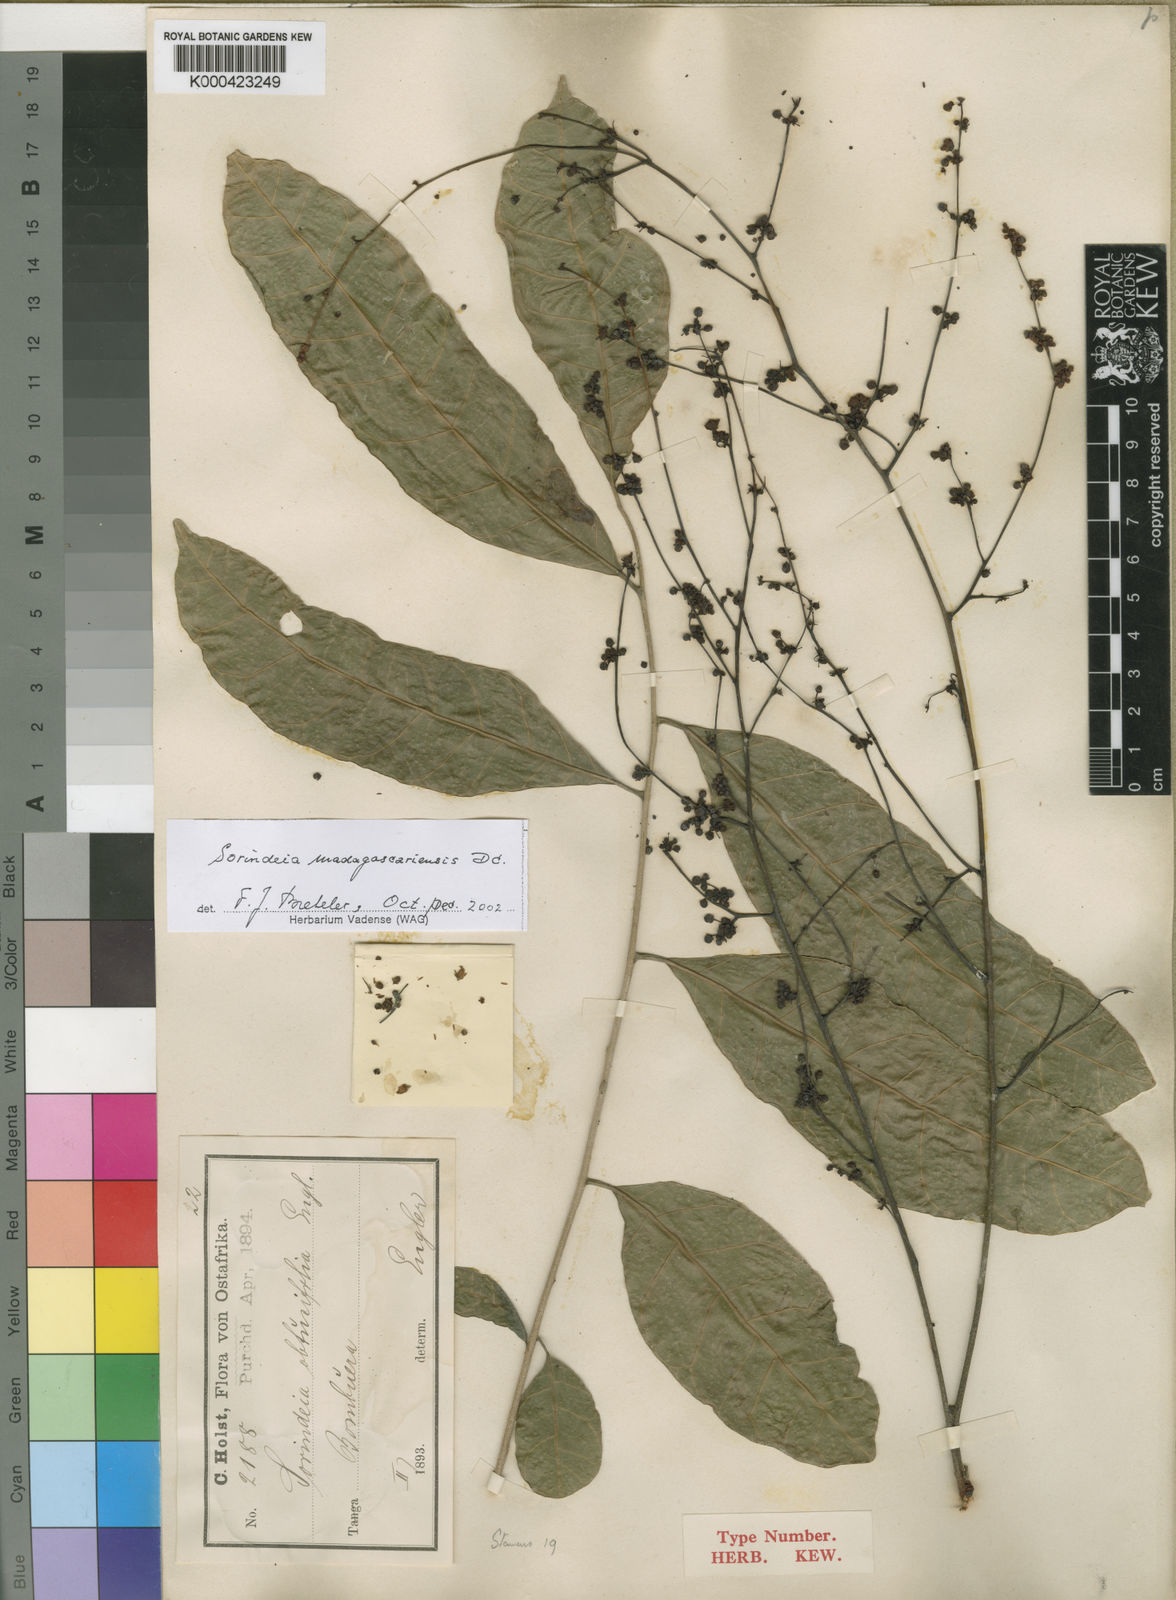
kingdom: Plantae
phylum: Tracheophyta
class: Magnoliopsida
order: Sapindales
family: Anacardiaceae
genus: Sorindeia
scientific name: Sorindeia madagascariensis
